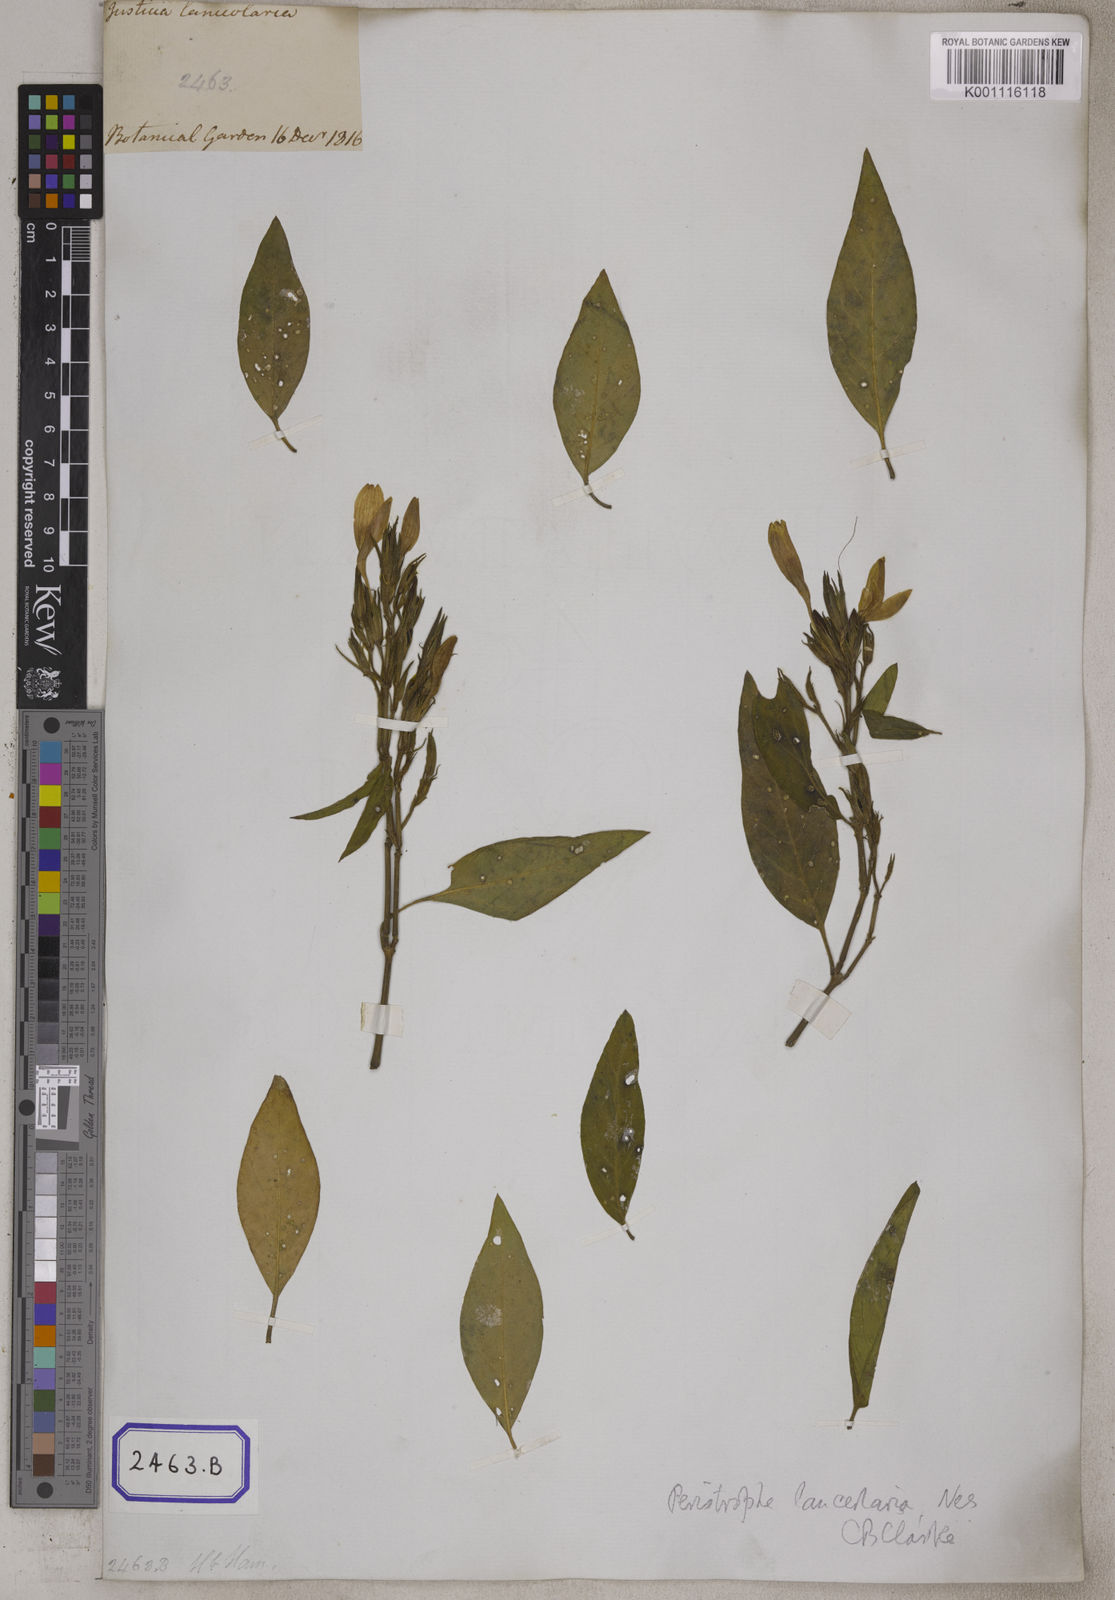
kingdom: Plantae
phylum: Tracheophyta
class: Magnoliopsida
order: Lamiales
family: Acanthaceae
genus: Dicliptera
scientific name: Dicliptera lanceolaria
